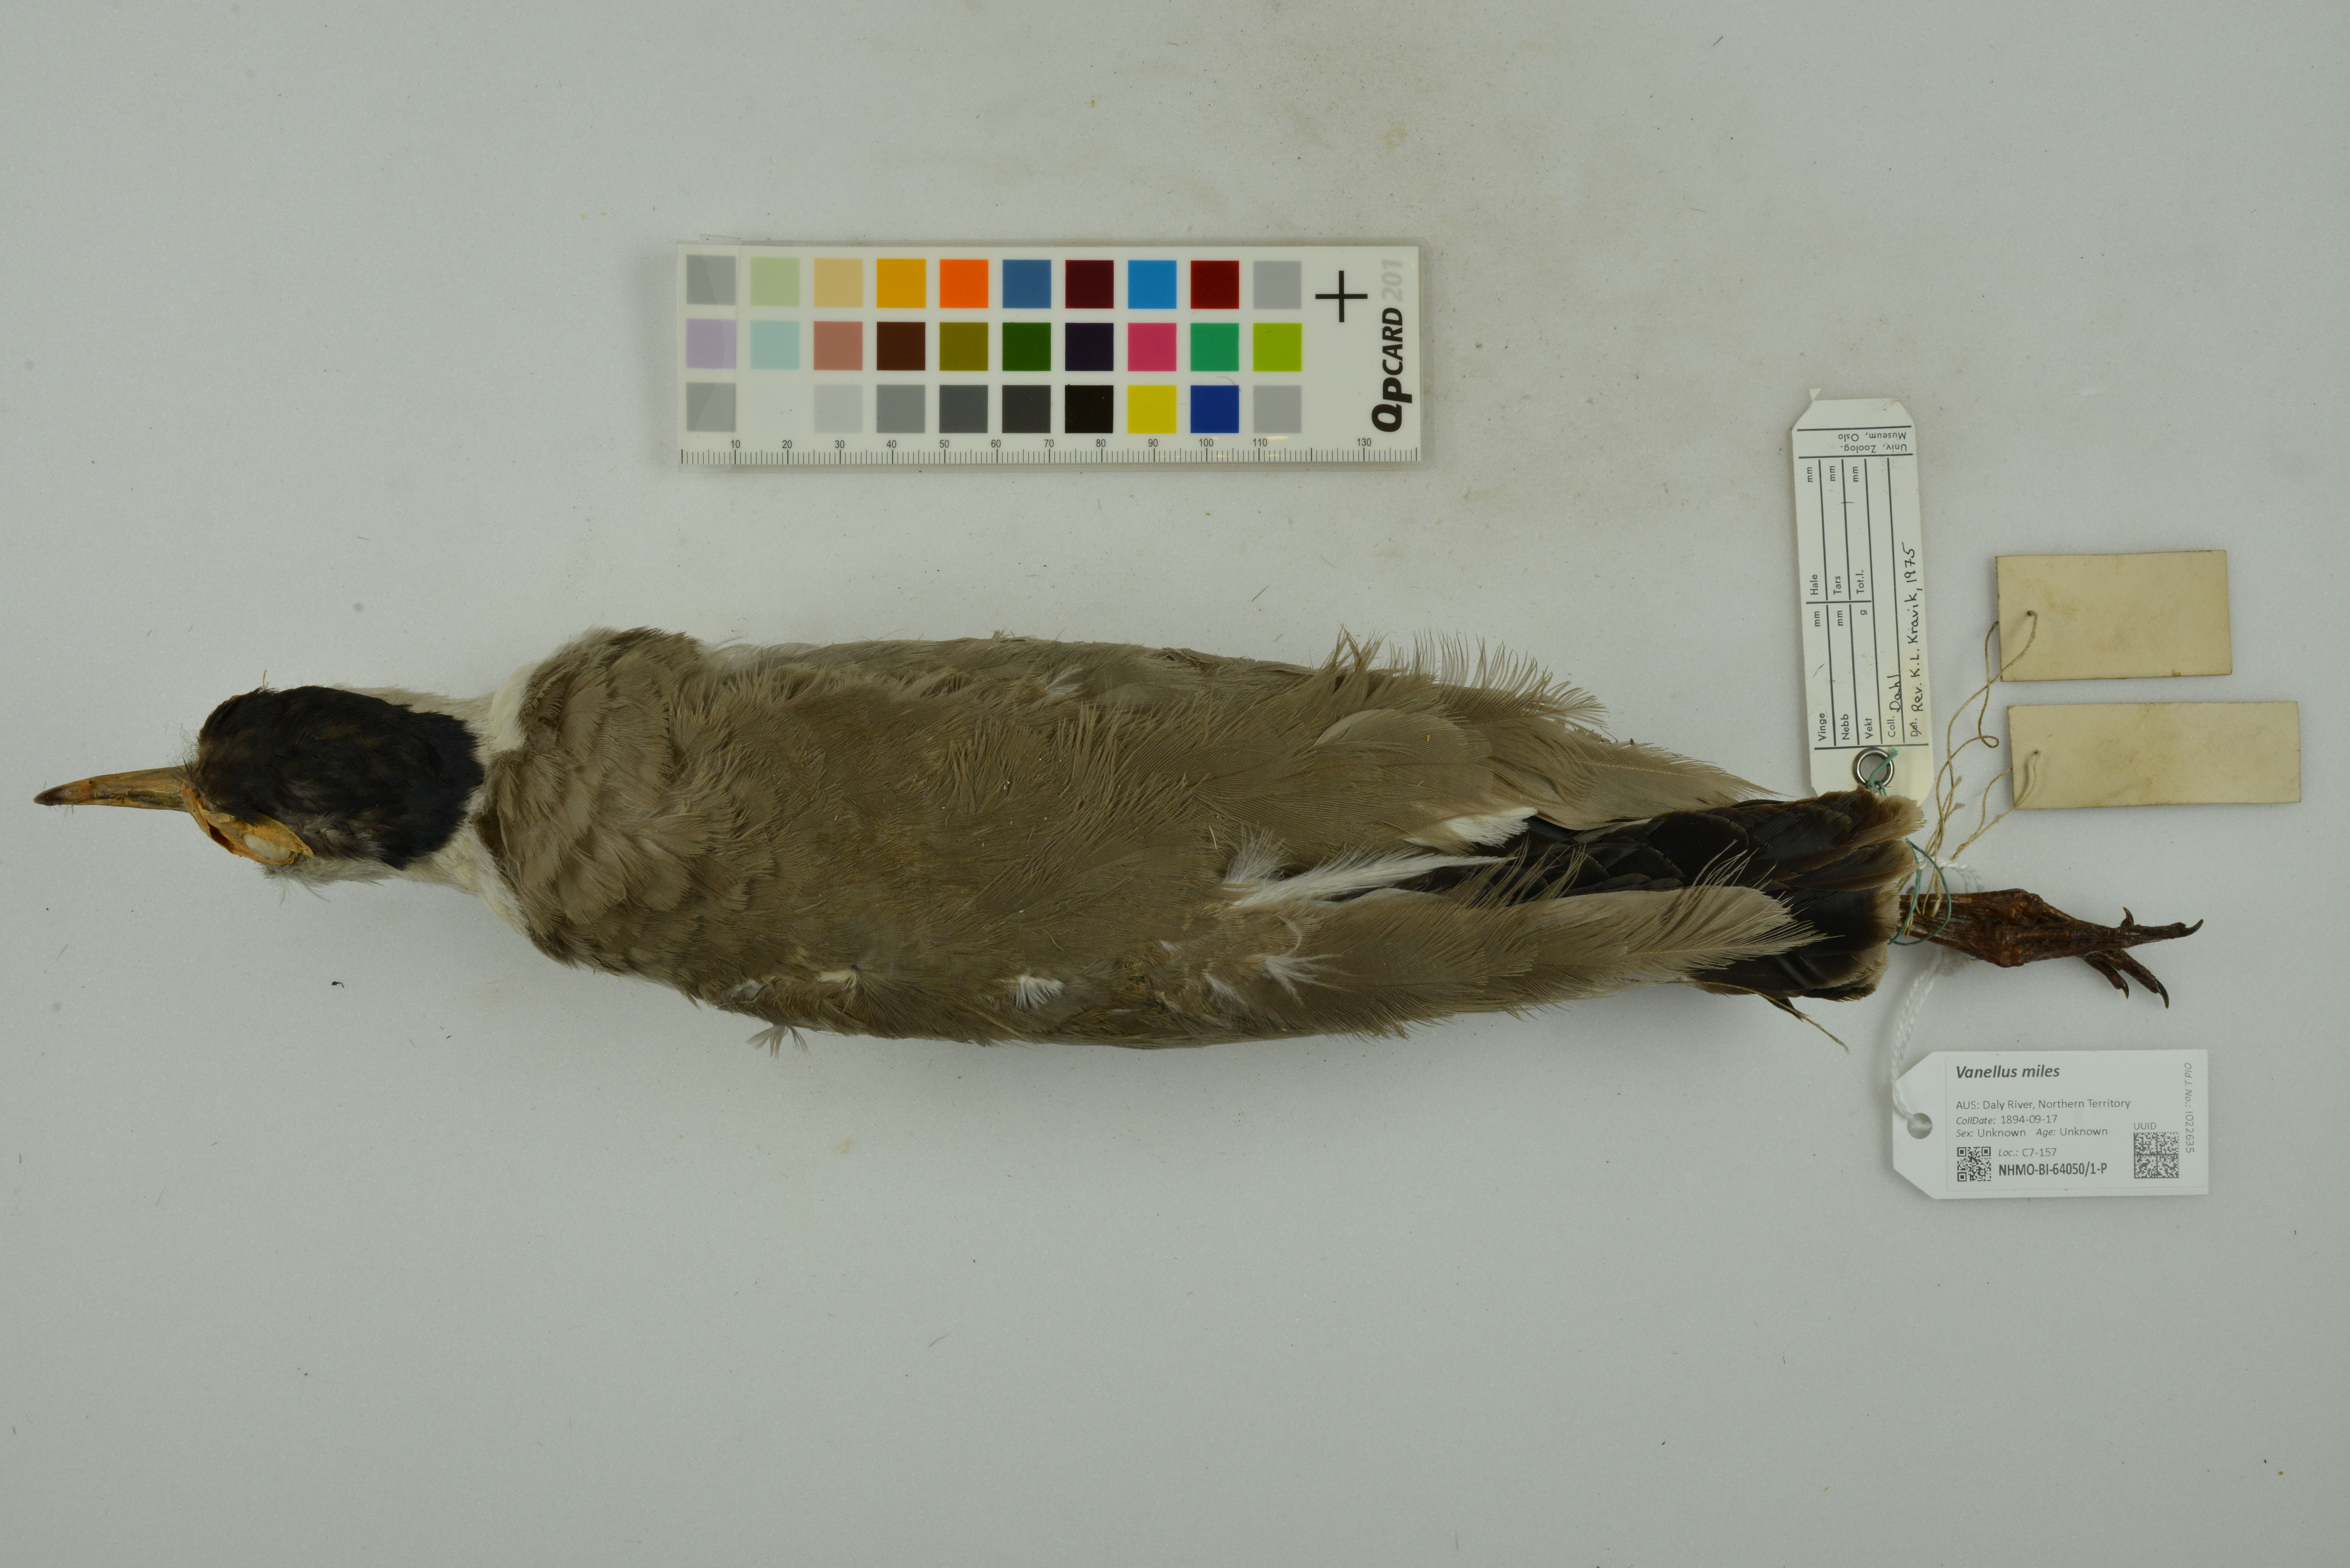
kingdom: Animalia
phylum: Chordata
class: Aves
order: Charadriiformes
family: Charadriidae
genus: Vanellus
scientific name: Vanellus miles
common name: Masked lapwing
